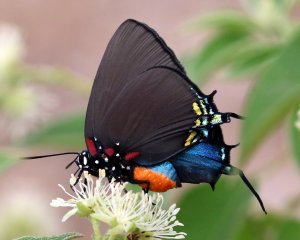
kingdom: Animalia
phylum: Arthropoda
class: Insecta
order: Lepidoptera
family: Lycaenidae
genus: Atlides
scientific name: Atlides halesus
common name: Great Purple Hairstreak
